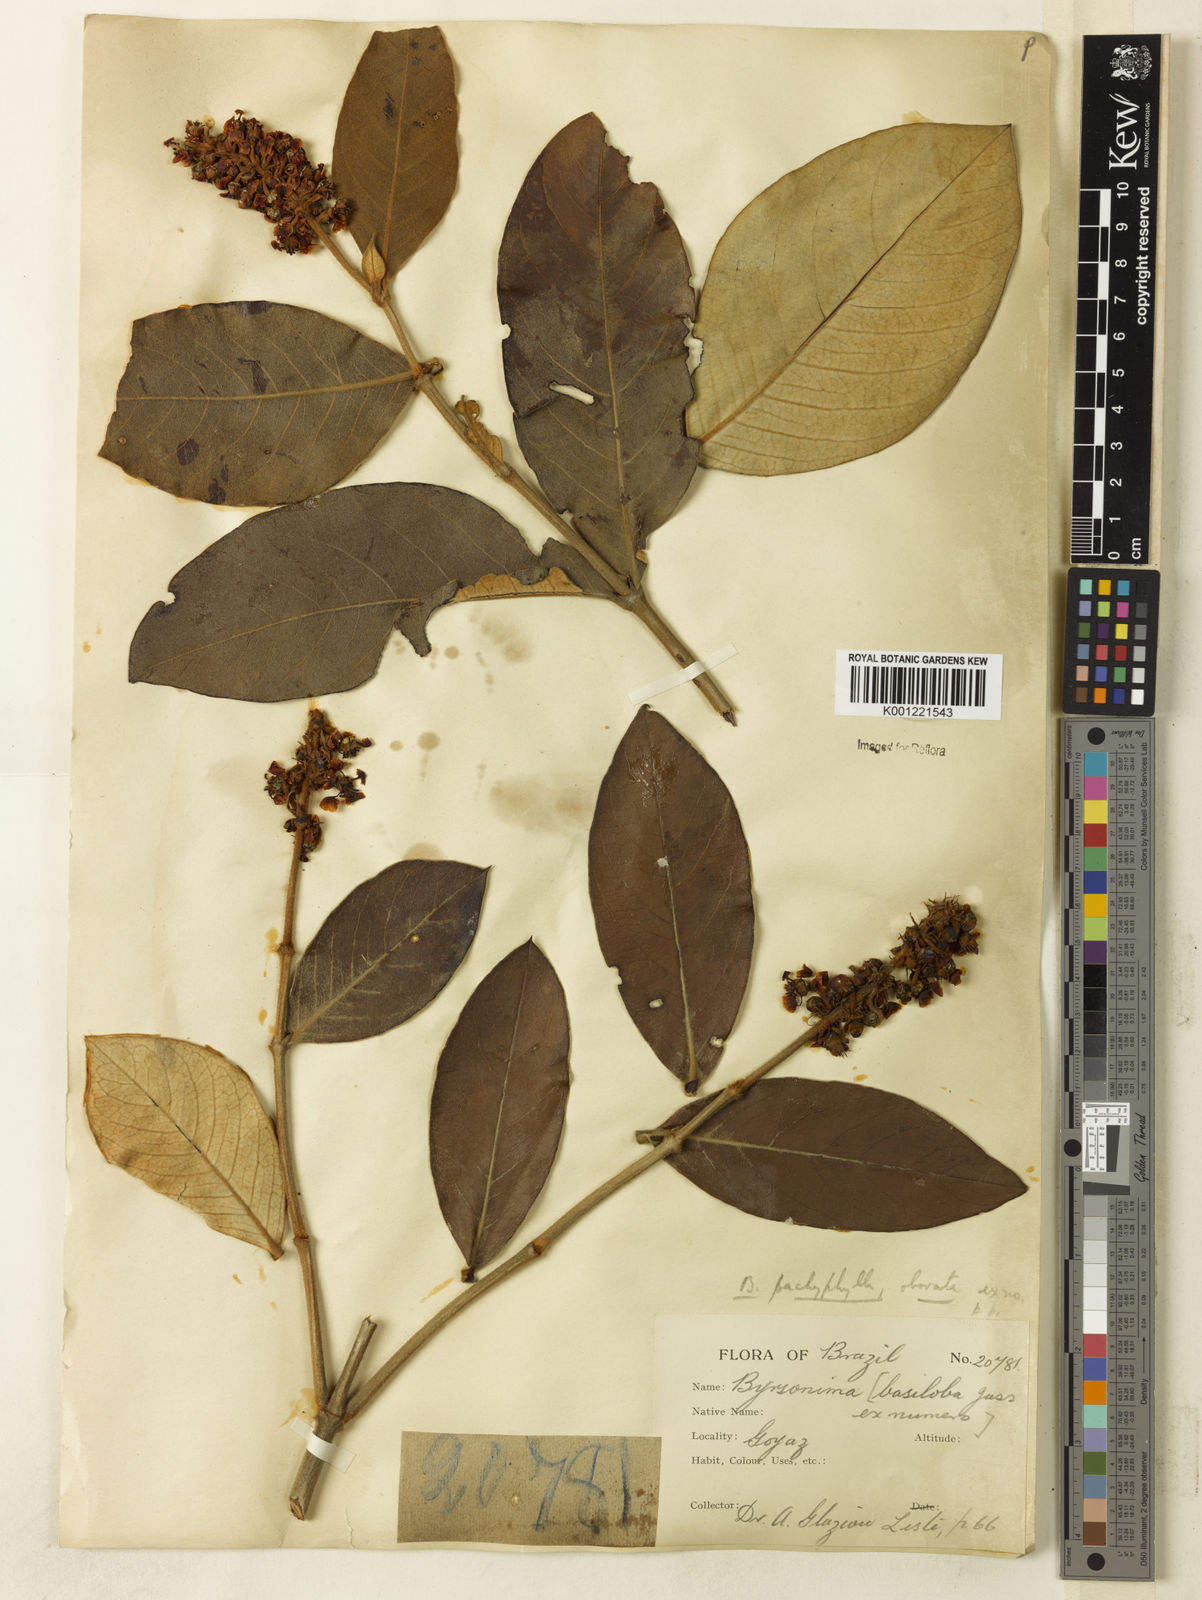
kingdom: Plantae
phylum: Tracheophyta
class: Magnoliopsida
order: Malpighiales
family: Malpighiaceae
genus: Byrsonima
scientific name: Byrsonima pachyphylla
